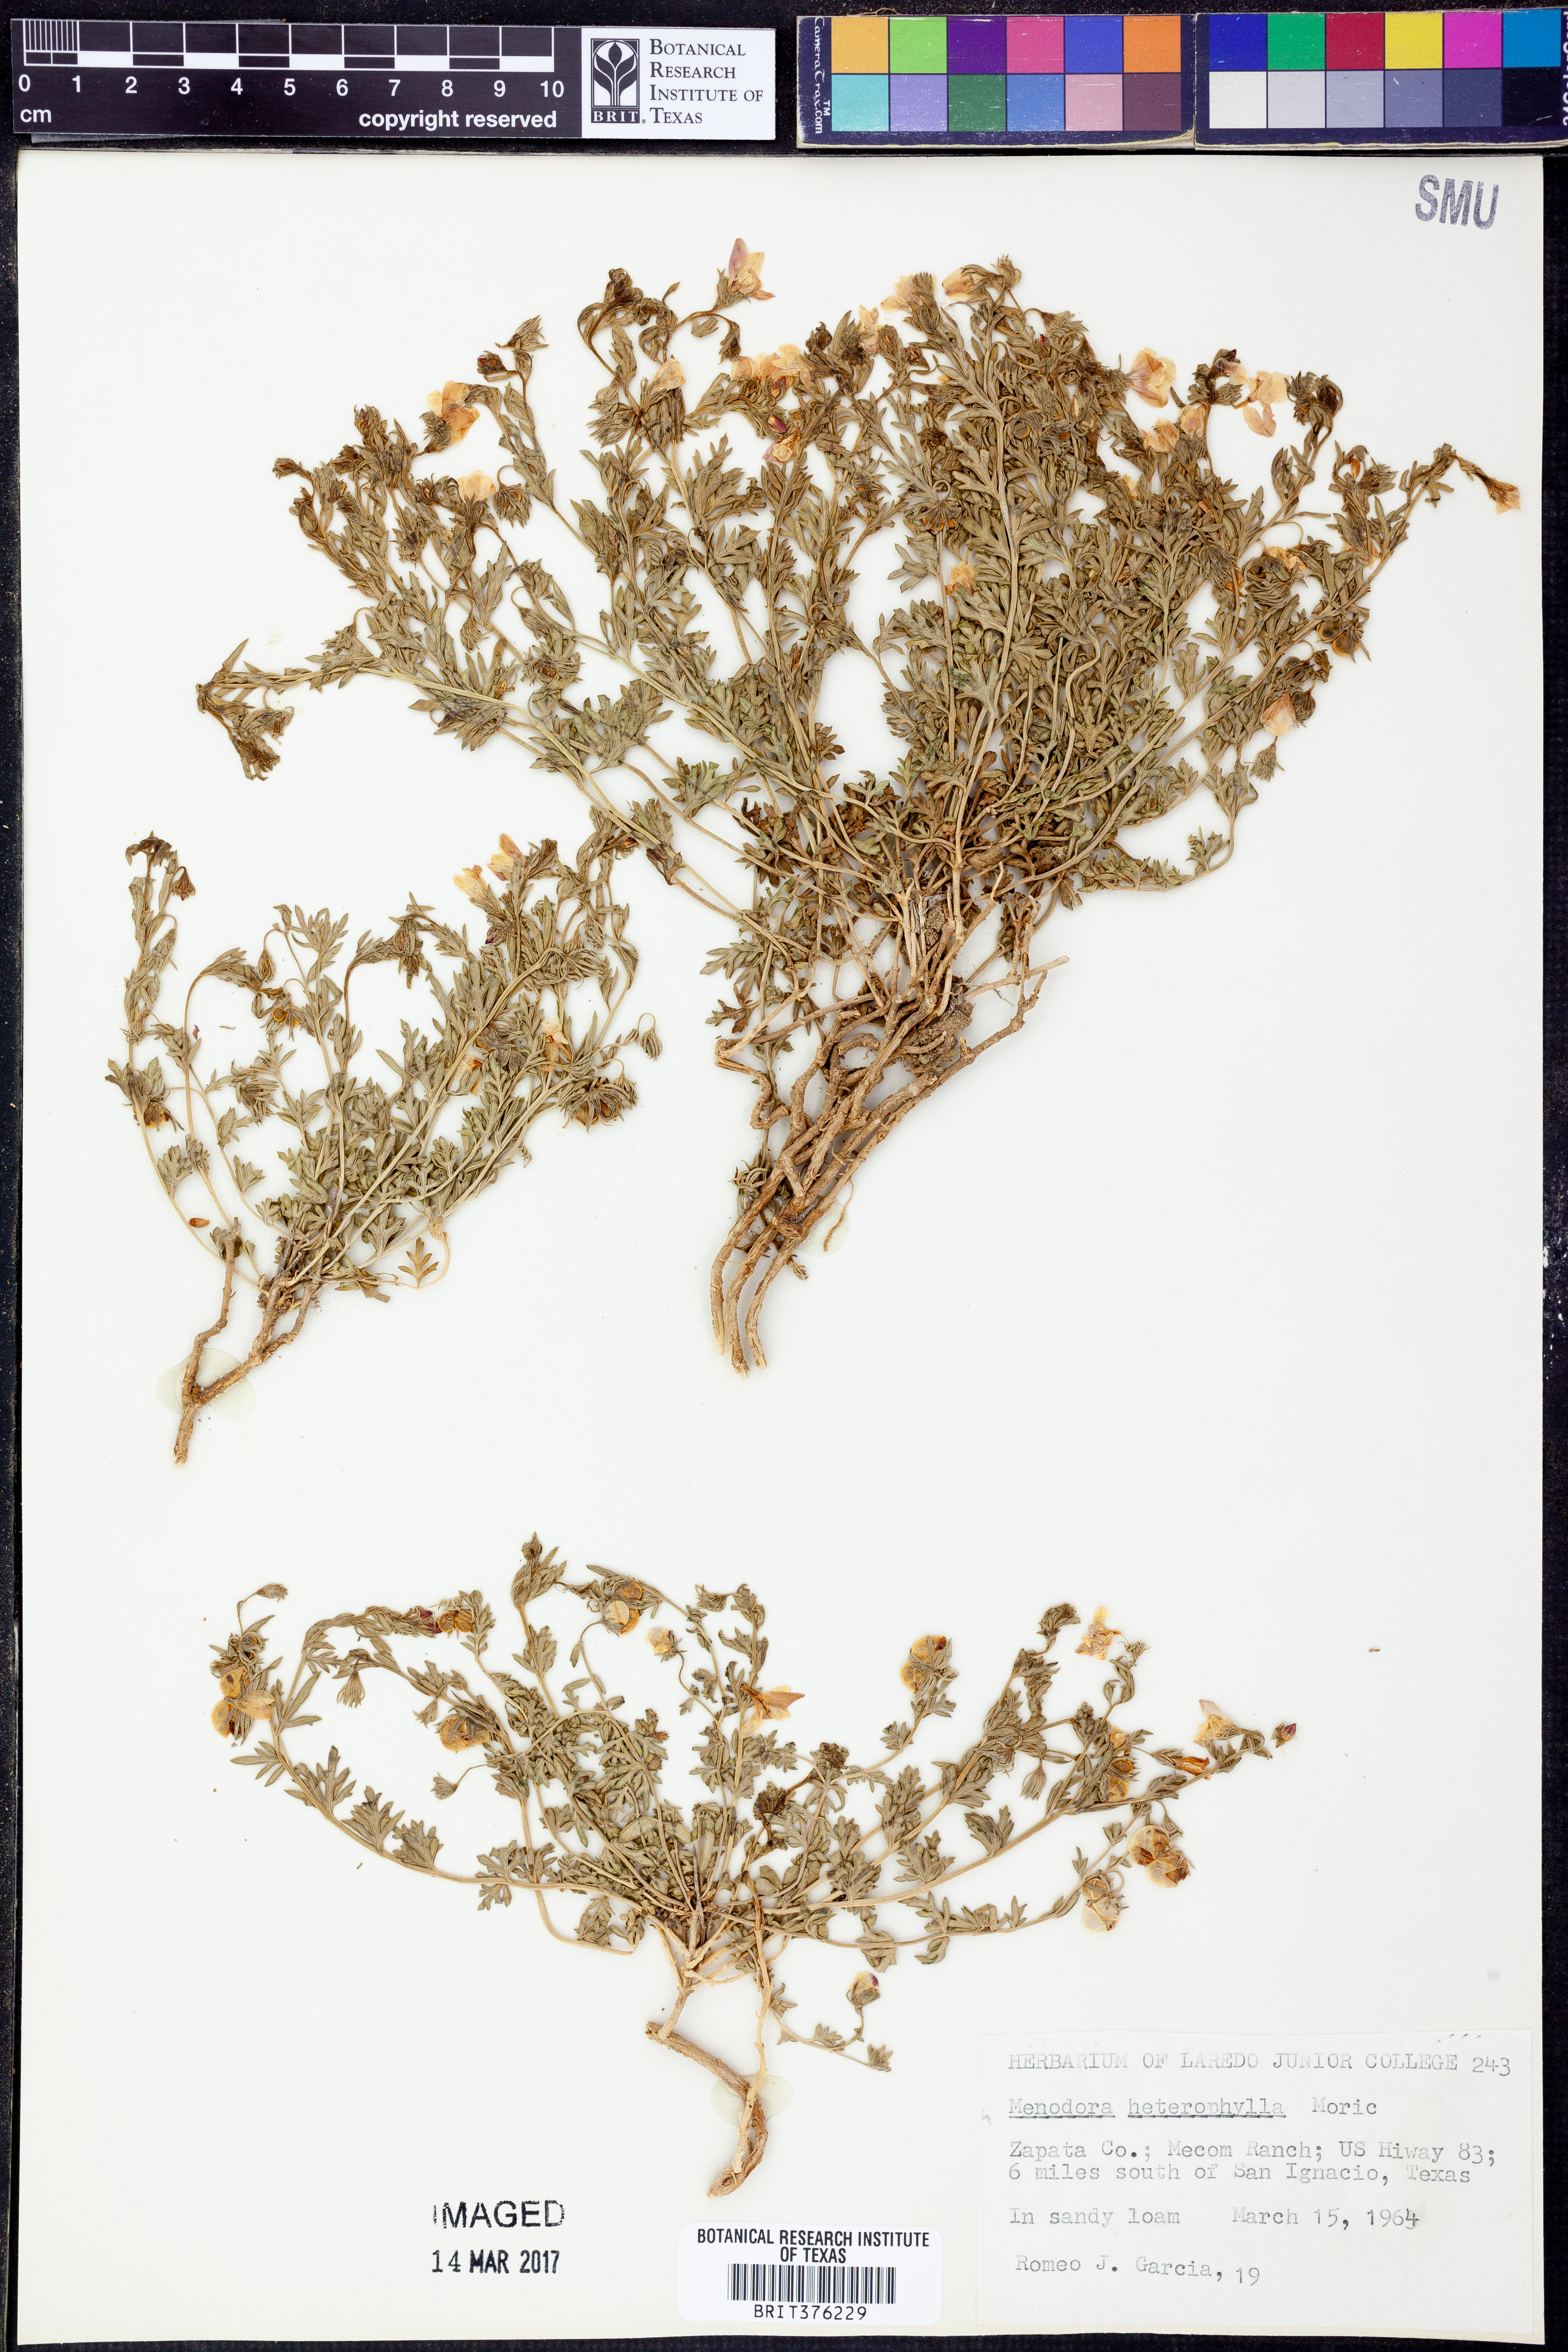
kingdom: Plantae
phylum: Tracheophyta
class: Magnoliopsida
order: Lamiales
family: Oleaceae
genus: Menodora
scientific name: Menodora heterophylla
